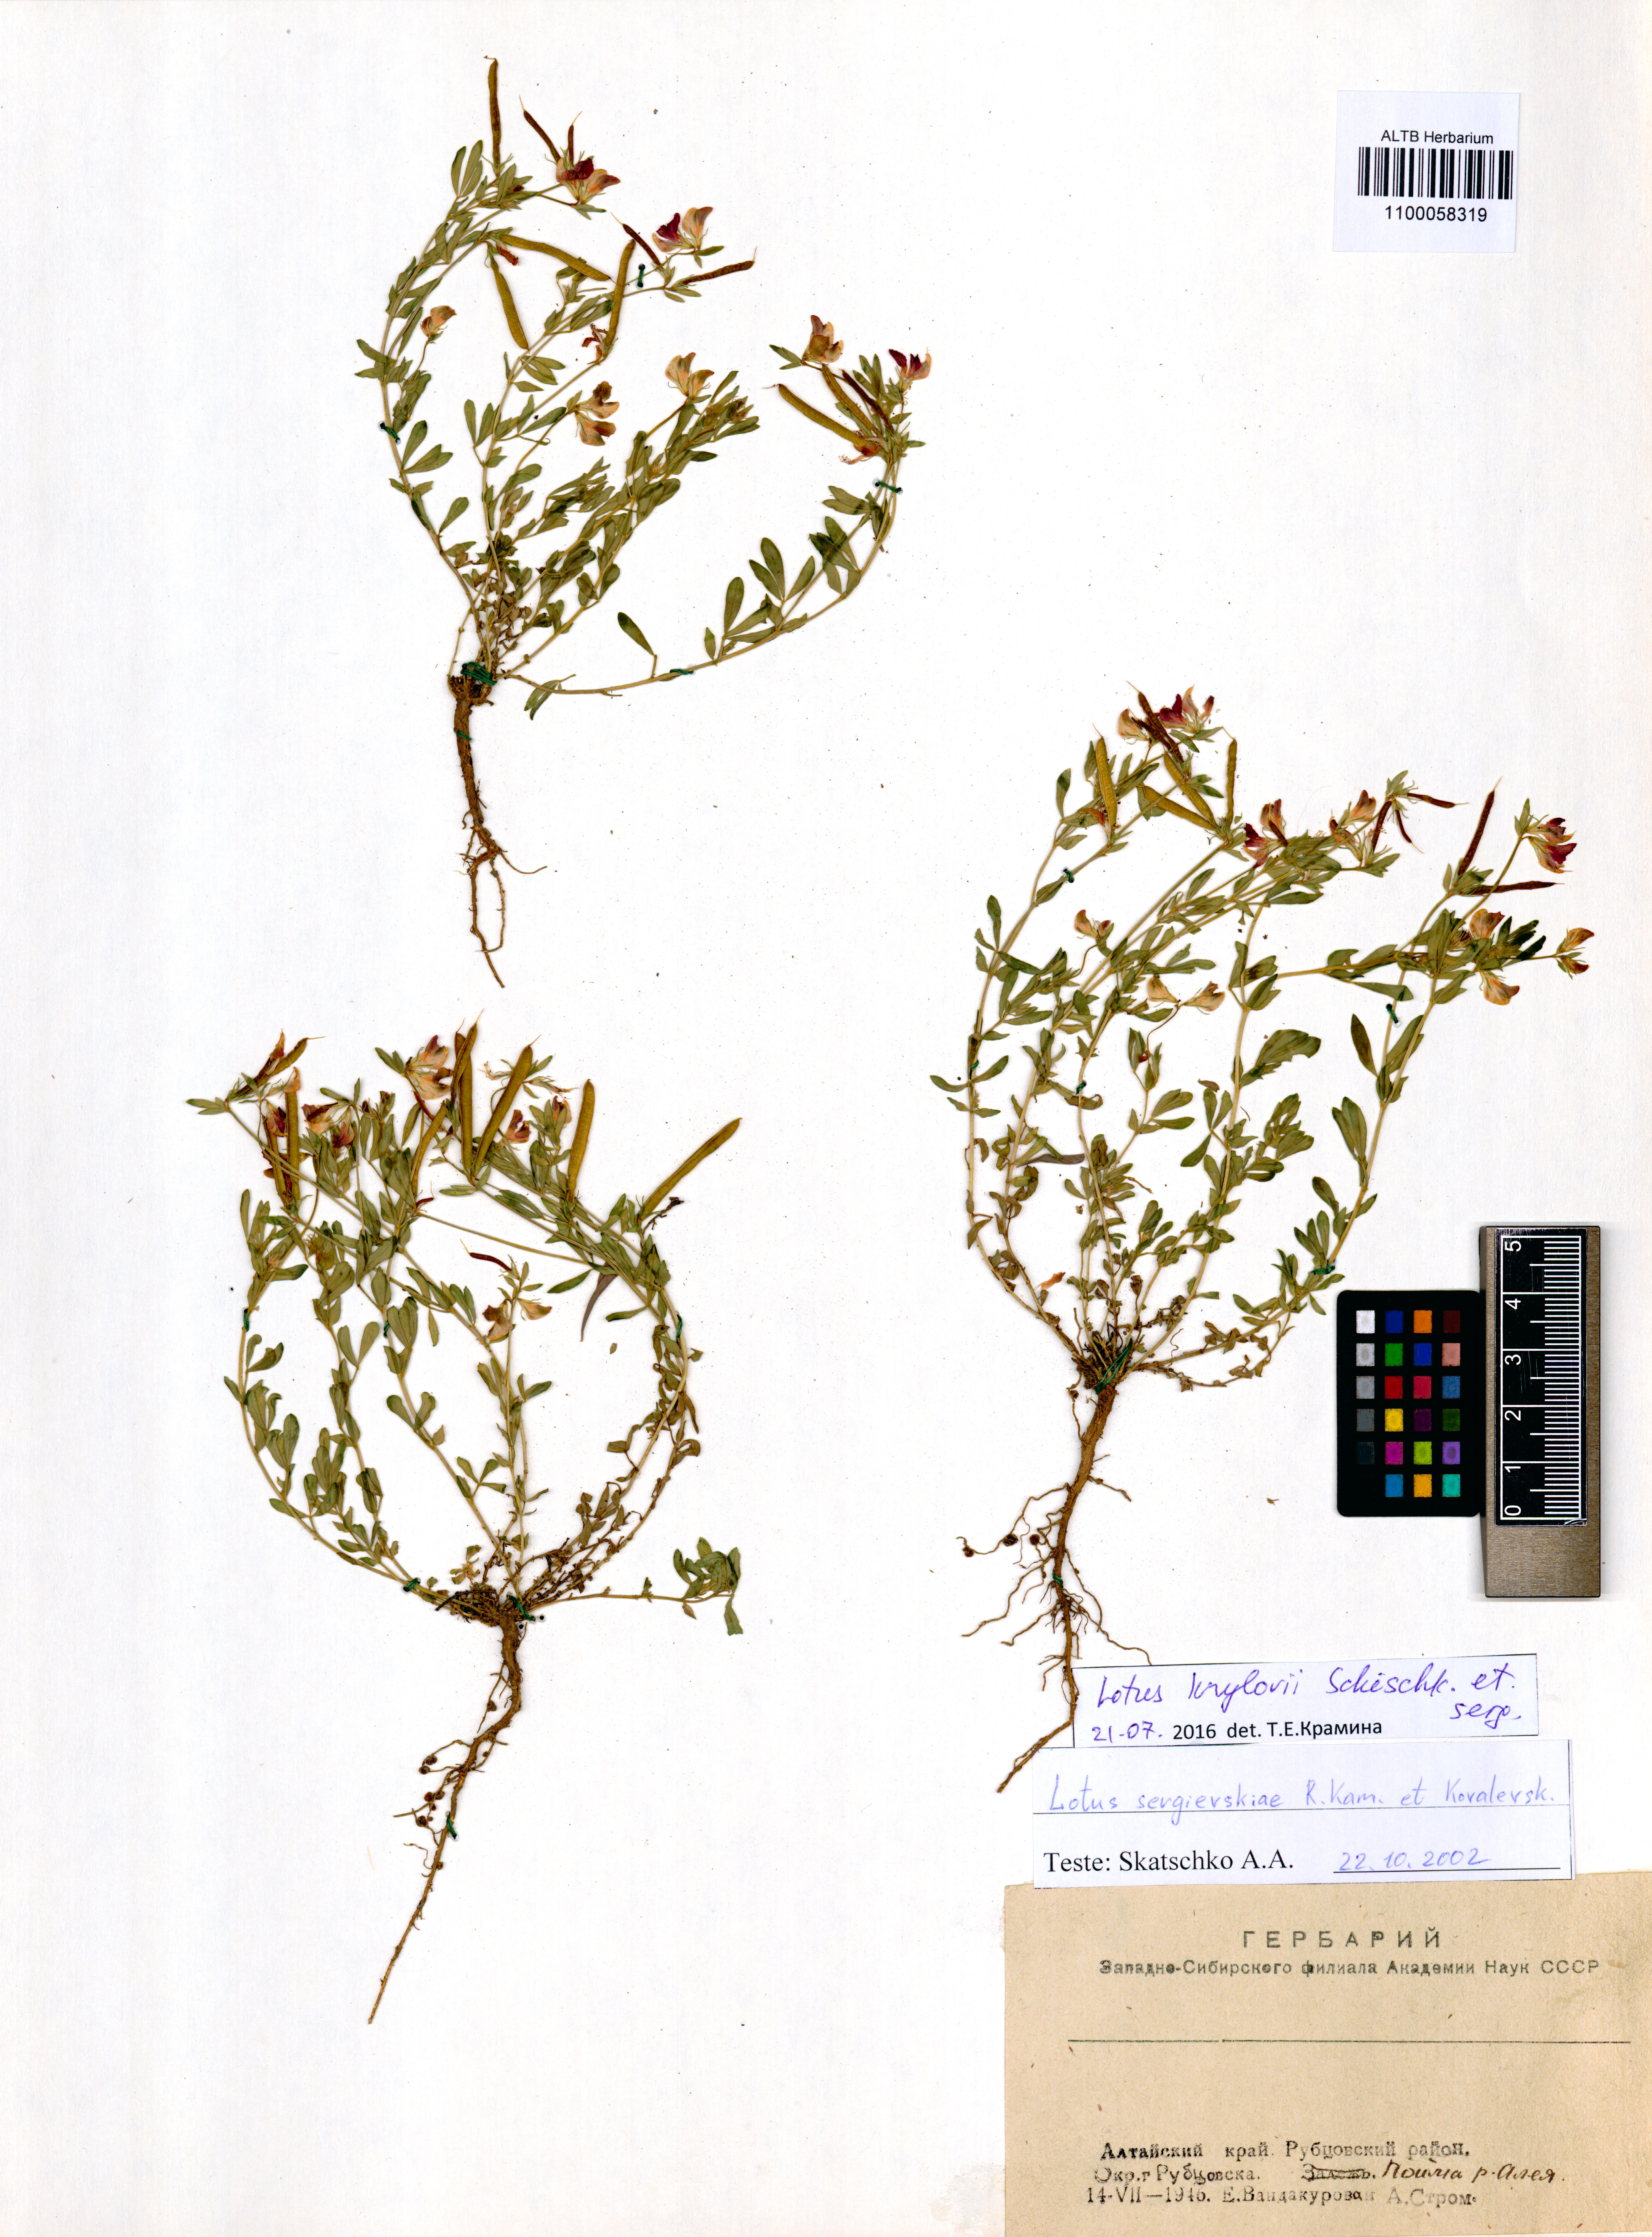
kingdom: Plantae
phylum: Tracheophyta
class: Magnoliopsida
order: Fabales
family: Fabaceae
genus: Lotus
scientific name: Lotus krylovii
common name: Krylov's bird's-foot trefoil
